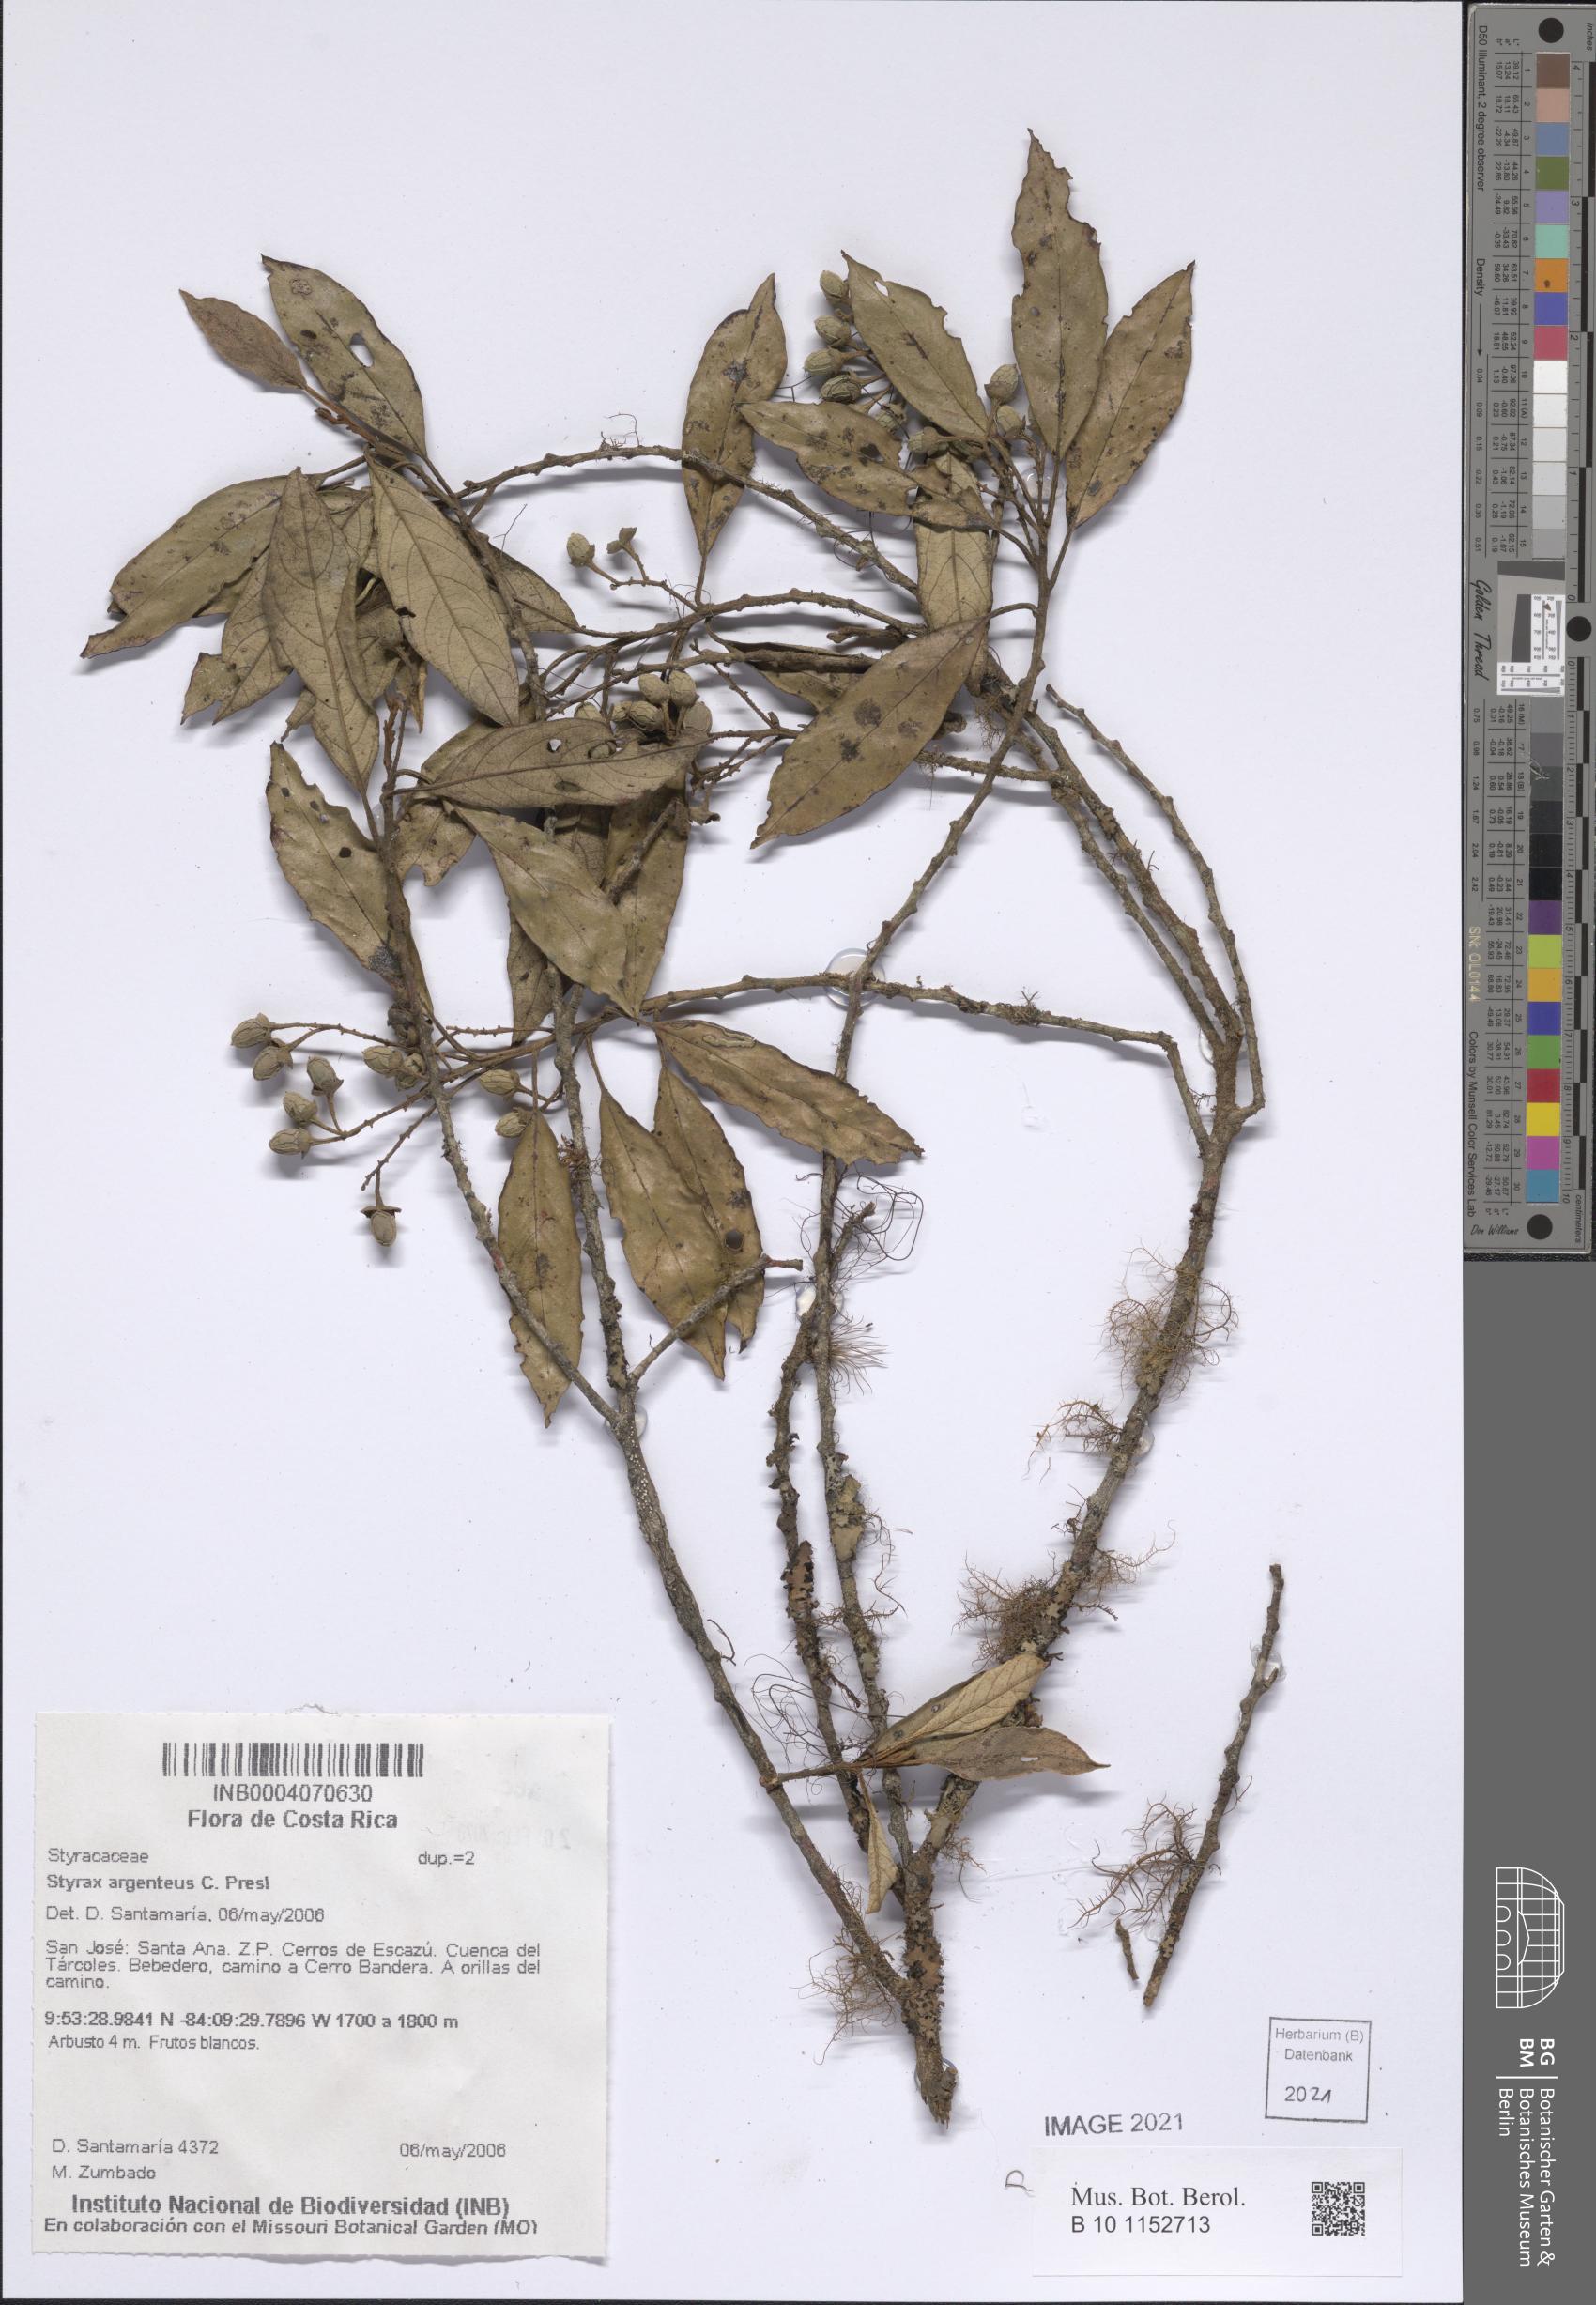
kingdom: Plantae
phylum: Tracheophyta
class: Magnoliopsida
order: Ericales
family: Styracaceae
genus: Styrax
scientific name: Styrax argenteus
